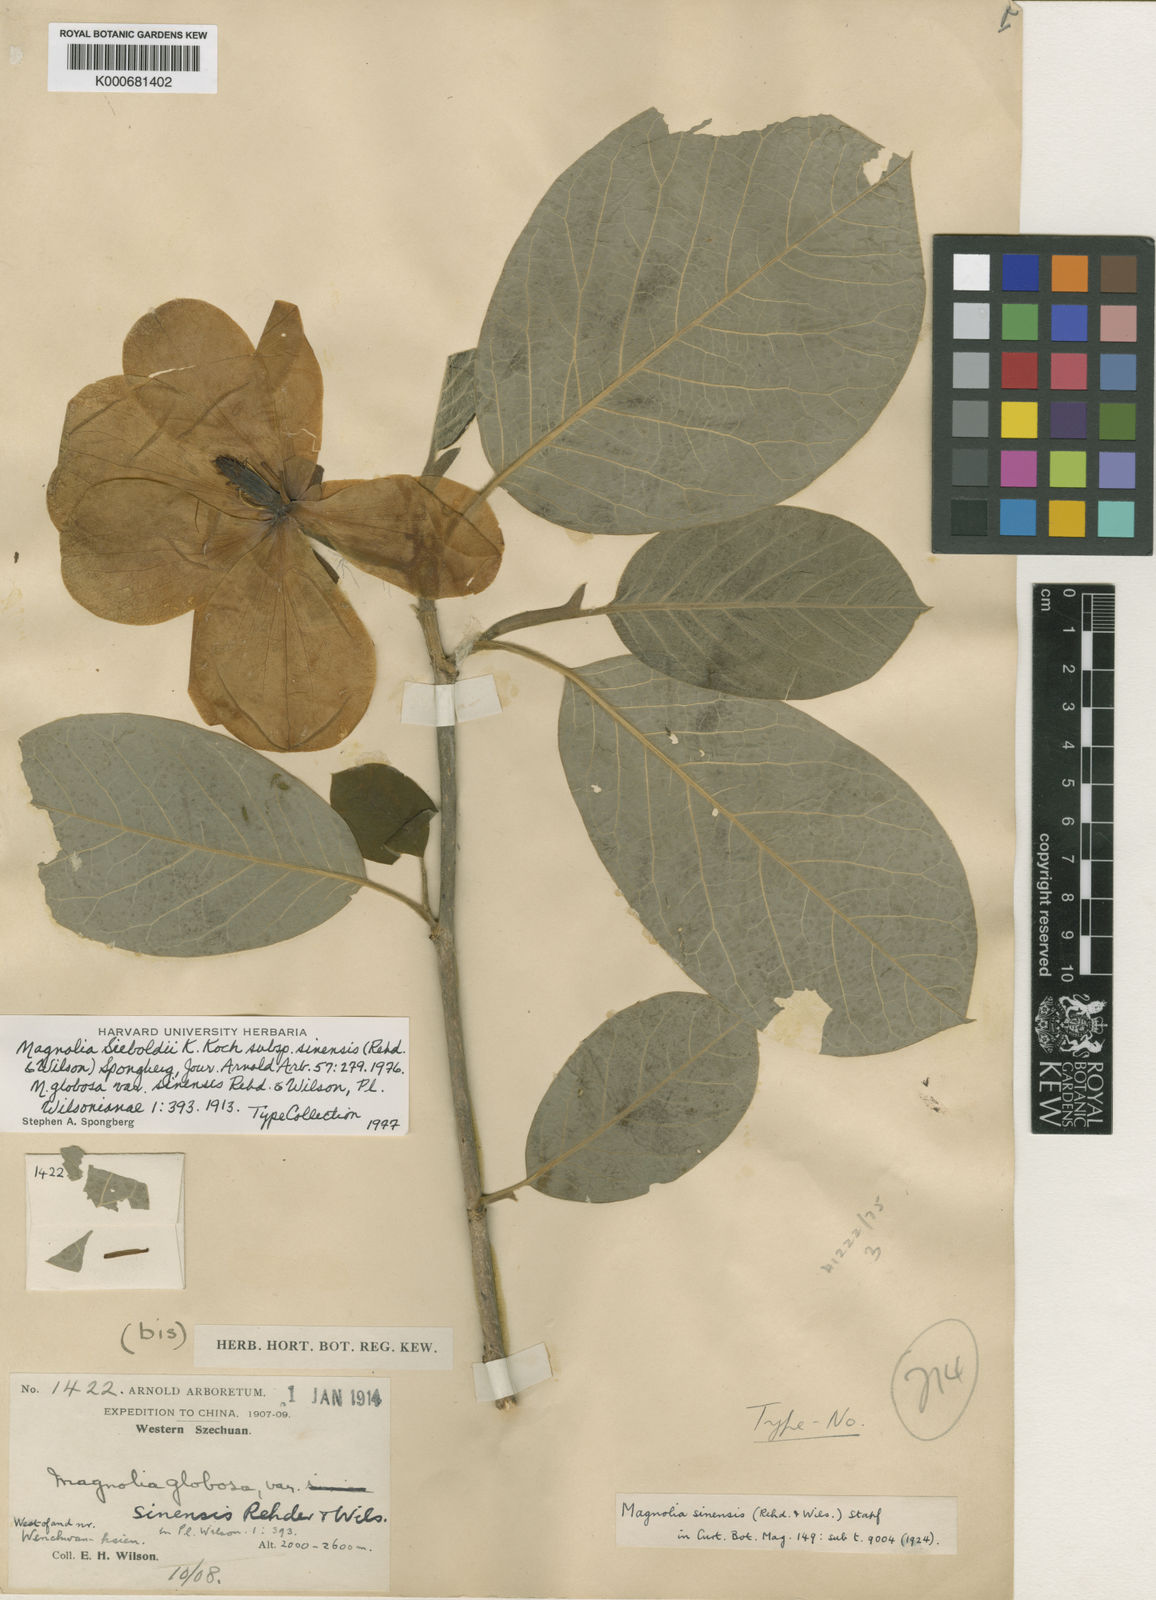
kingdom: Plantae
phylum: Tracheophyta
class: Magnoliopsida
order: Magnoliales
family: Magnoliaceae
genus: Magnolia
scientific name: Magnolia sieboldii
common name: Oyama magnolia
